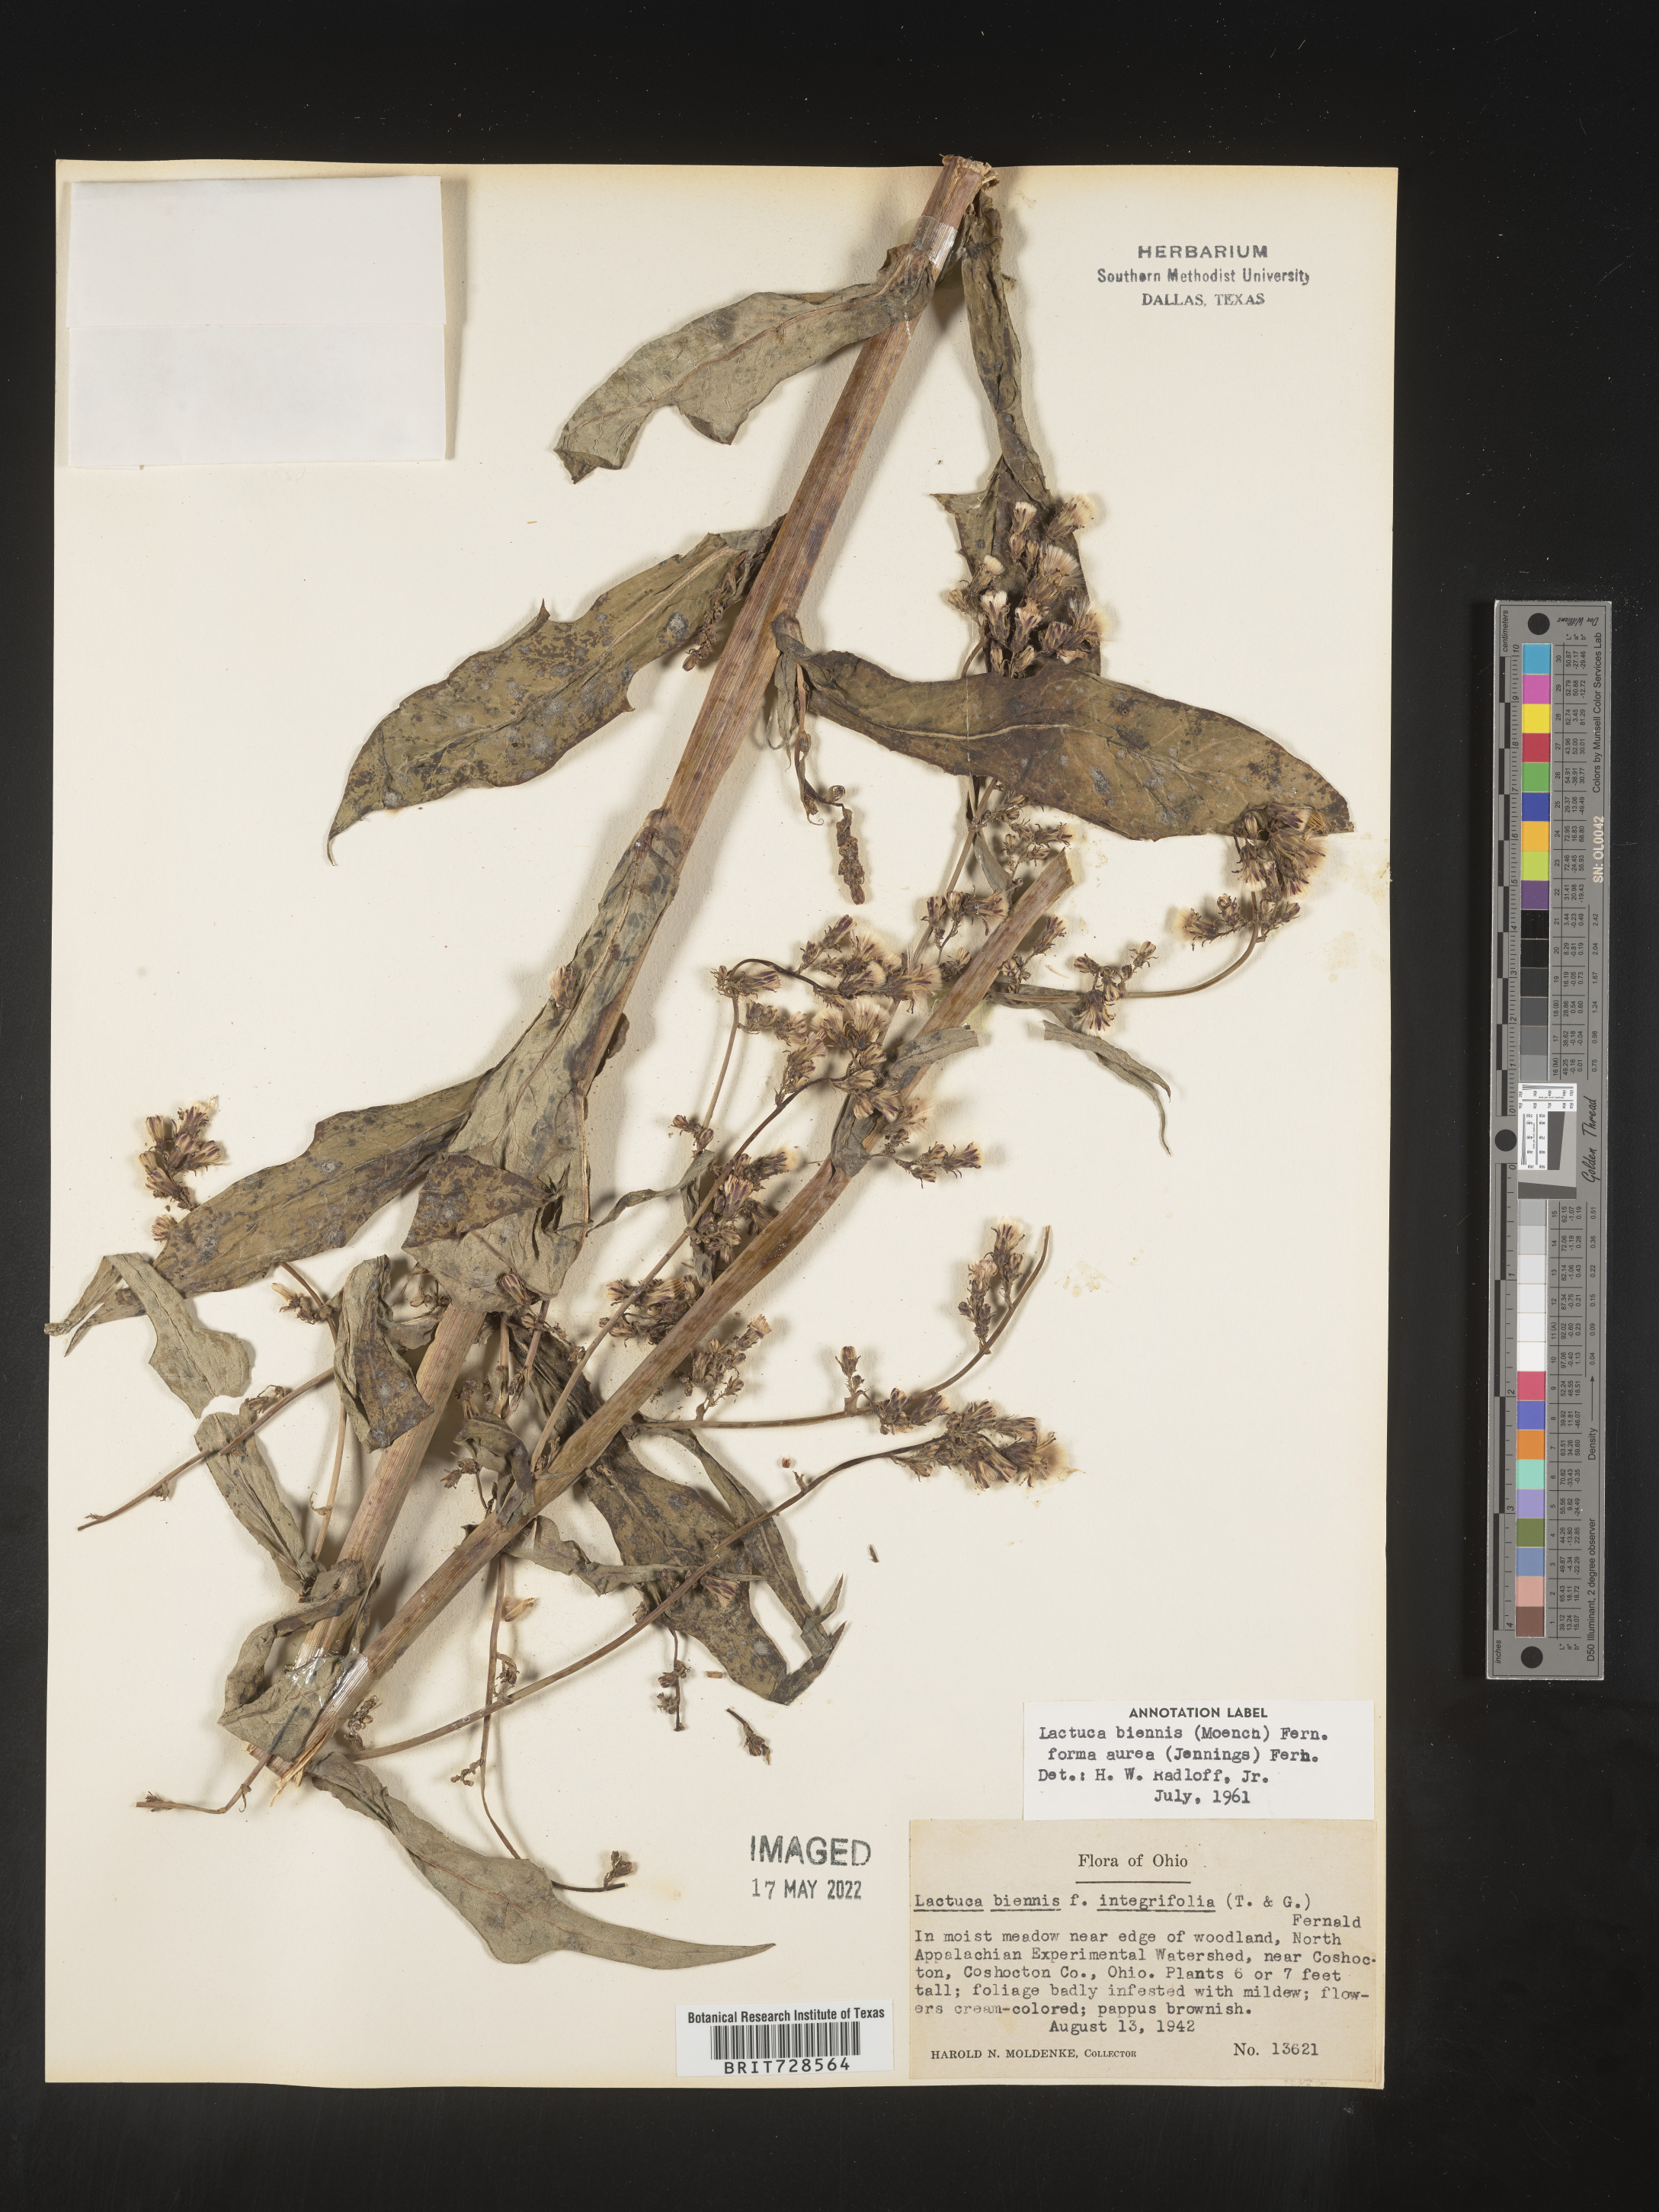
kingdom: Plantae
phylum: Tracheophyta
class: Magnoliopsida
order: Asterales
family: Asteraceae
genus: Lactuca
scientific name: Lactuca biennis
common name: Blue wood lettuce
